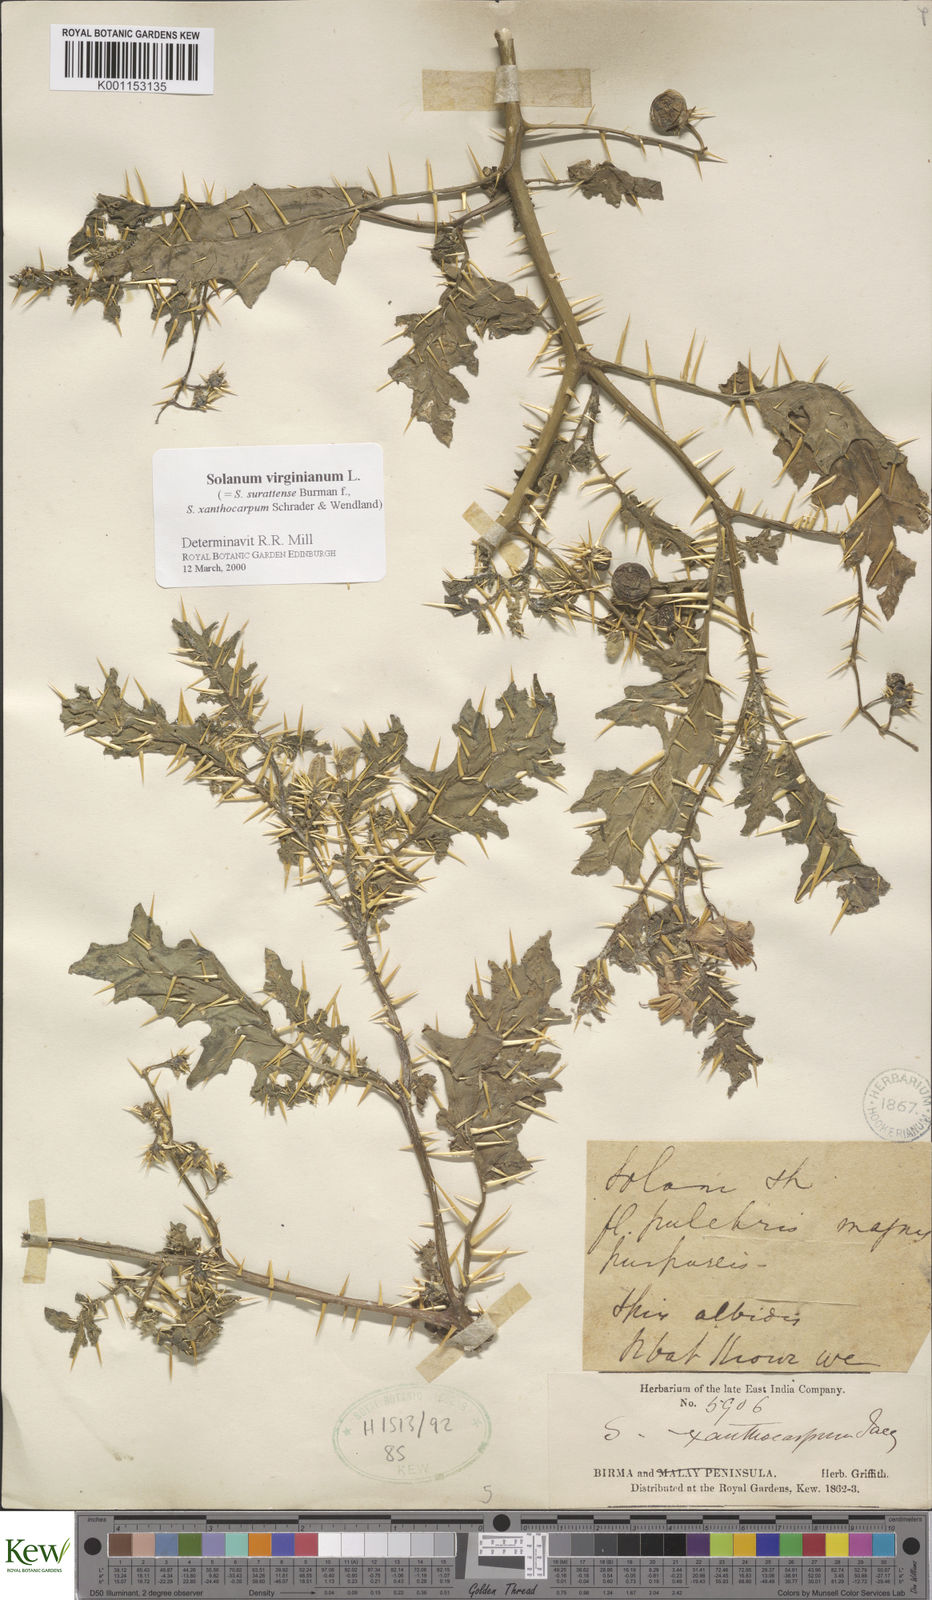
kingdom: Plantae
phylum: Tracheophyta
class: Magnoliopsida
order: Solanales
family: Solanaceae
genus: Solanum
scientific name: Solanum virginianum
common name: Surattense nightshade
